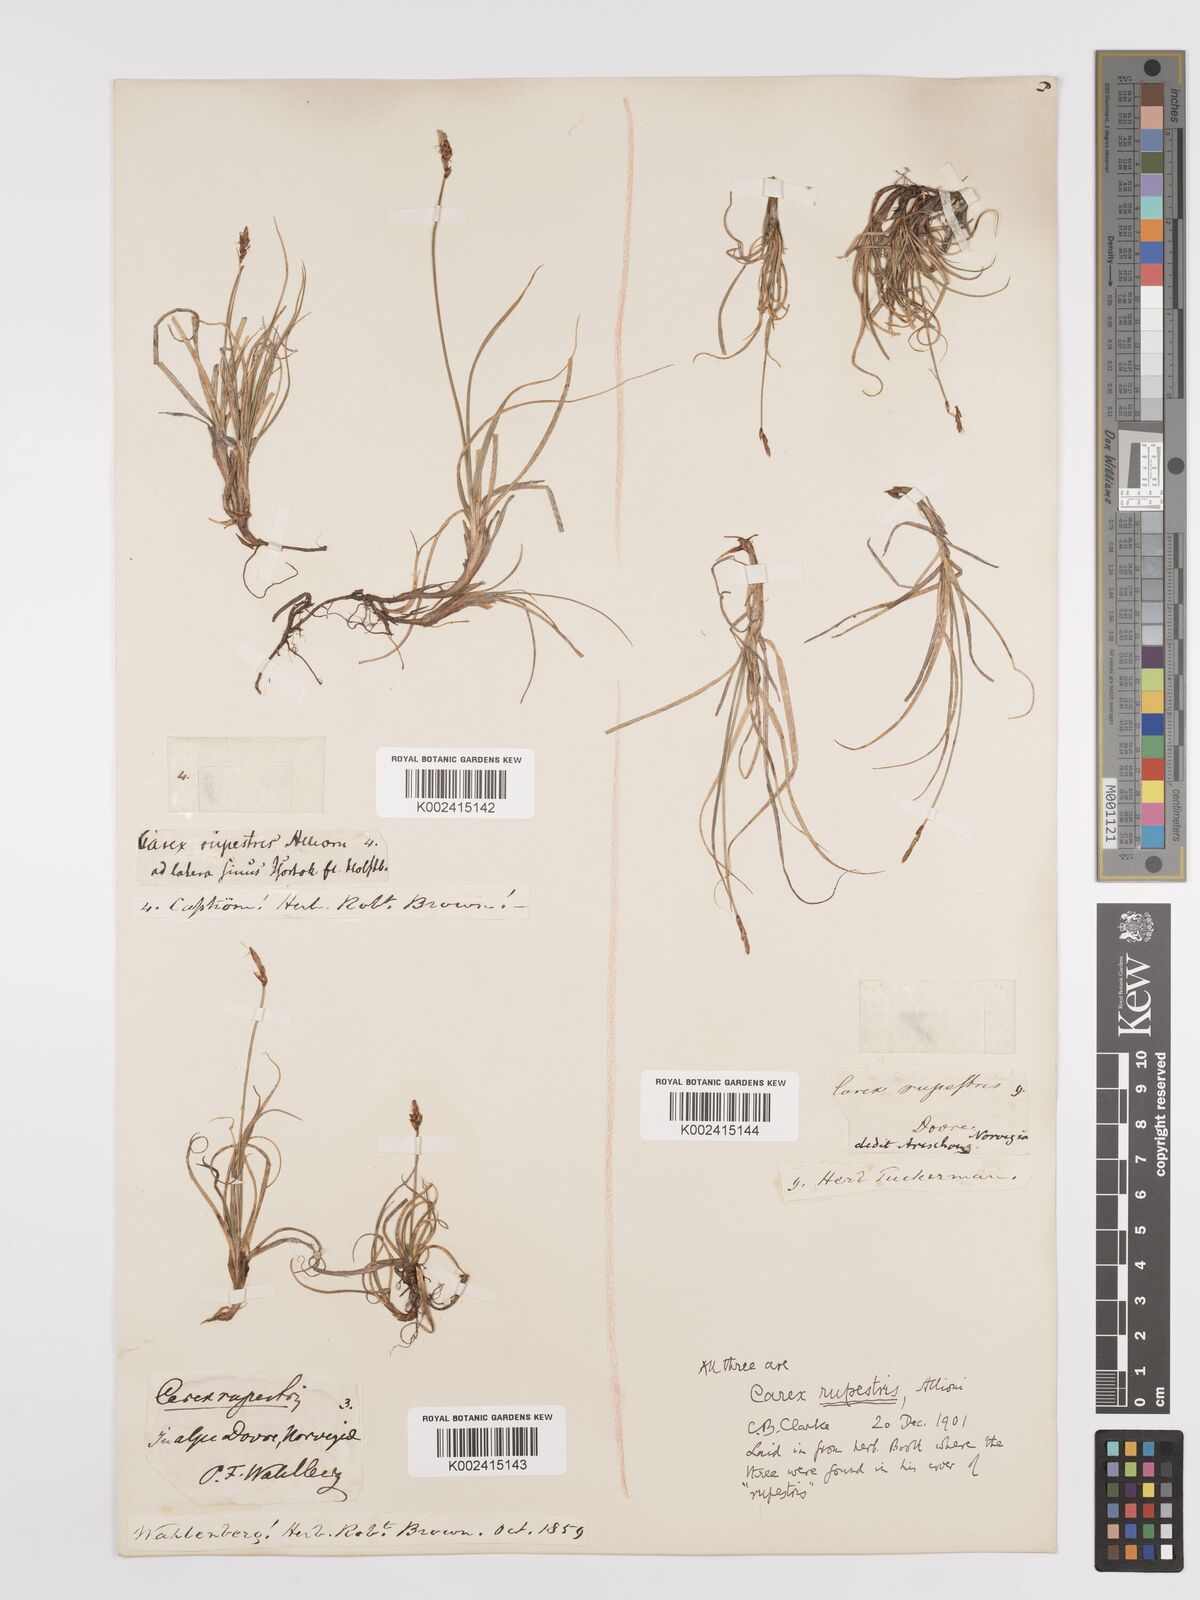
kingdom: Plantae
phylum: Tracheophyta
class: Liliopsida
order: Poales
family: Cyperaceae
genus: Carex
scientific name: Carex rupestris
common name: Rock sedge
